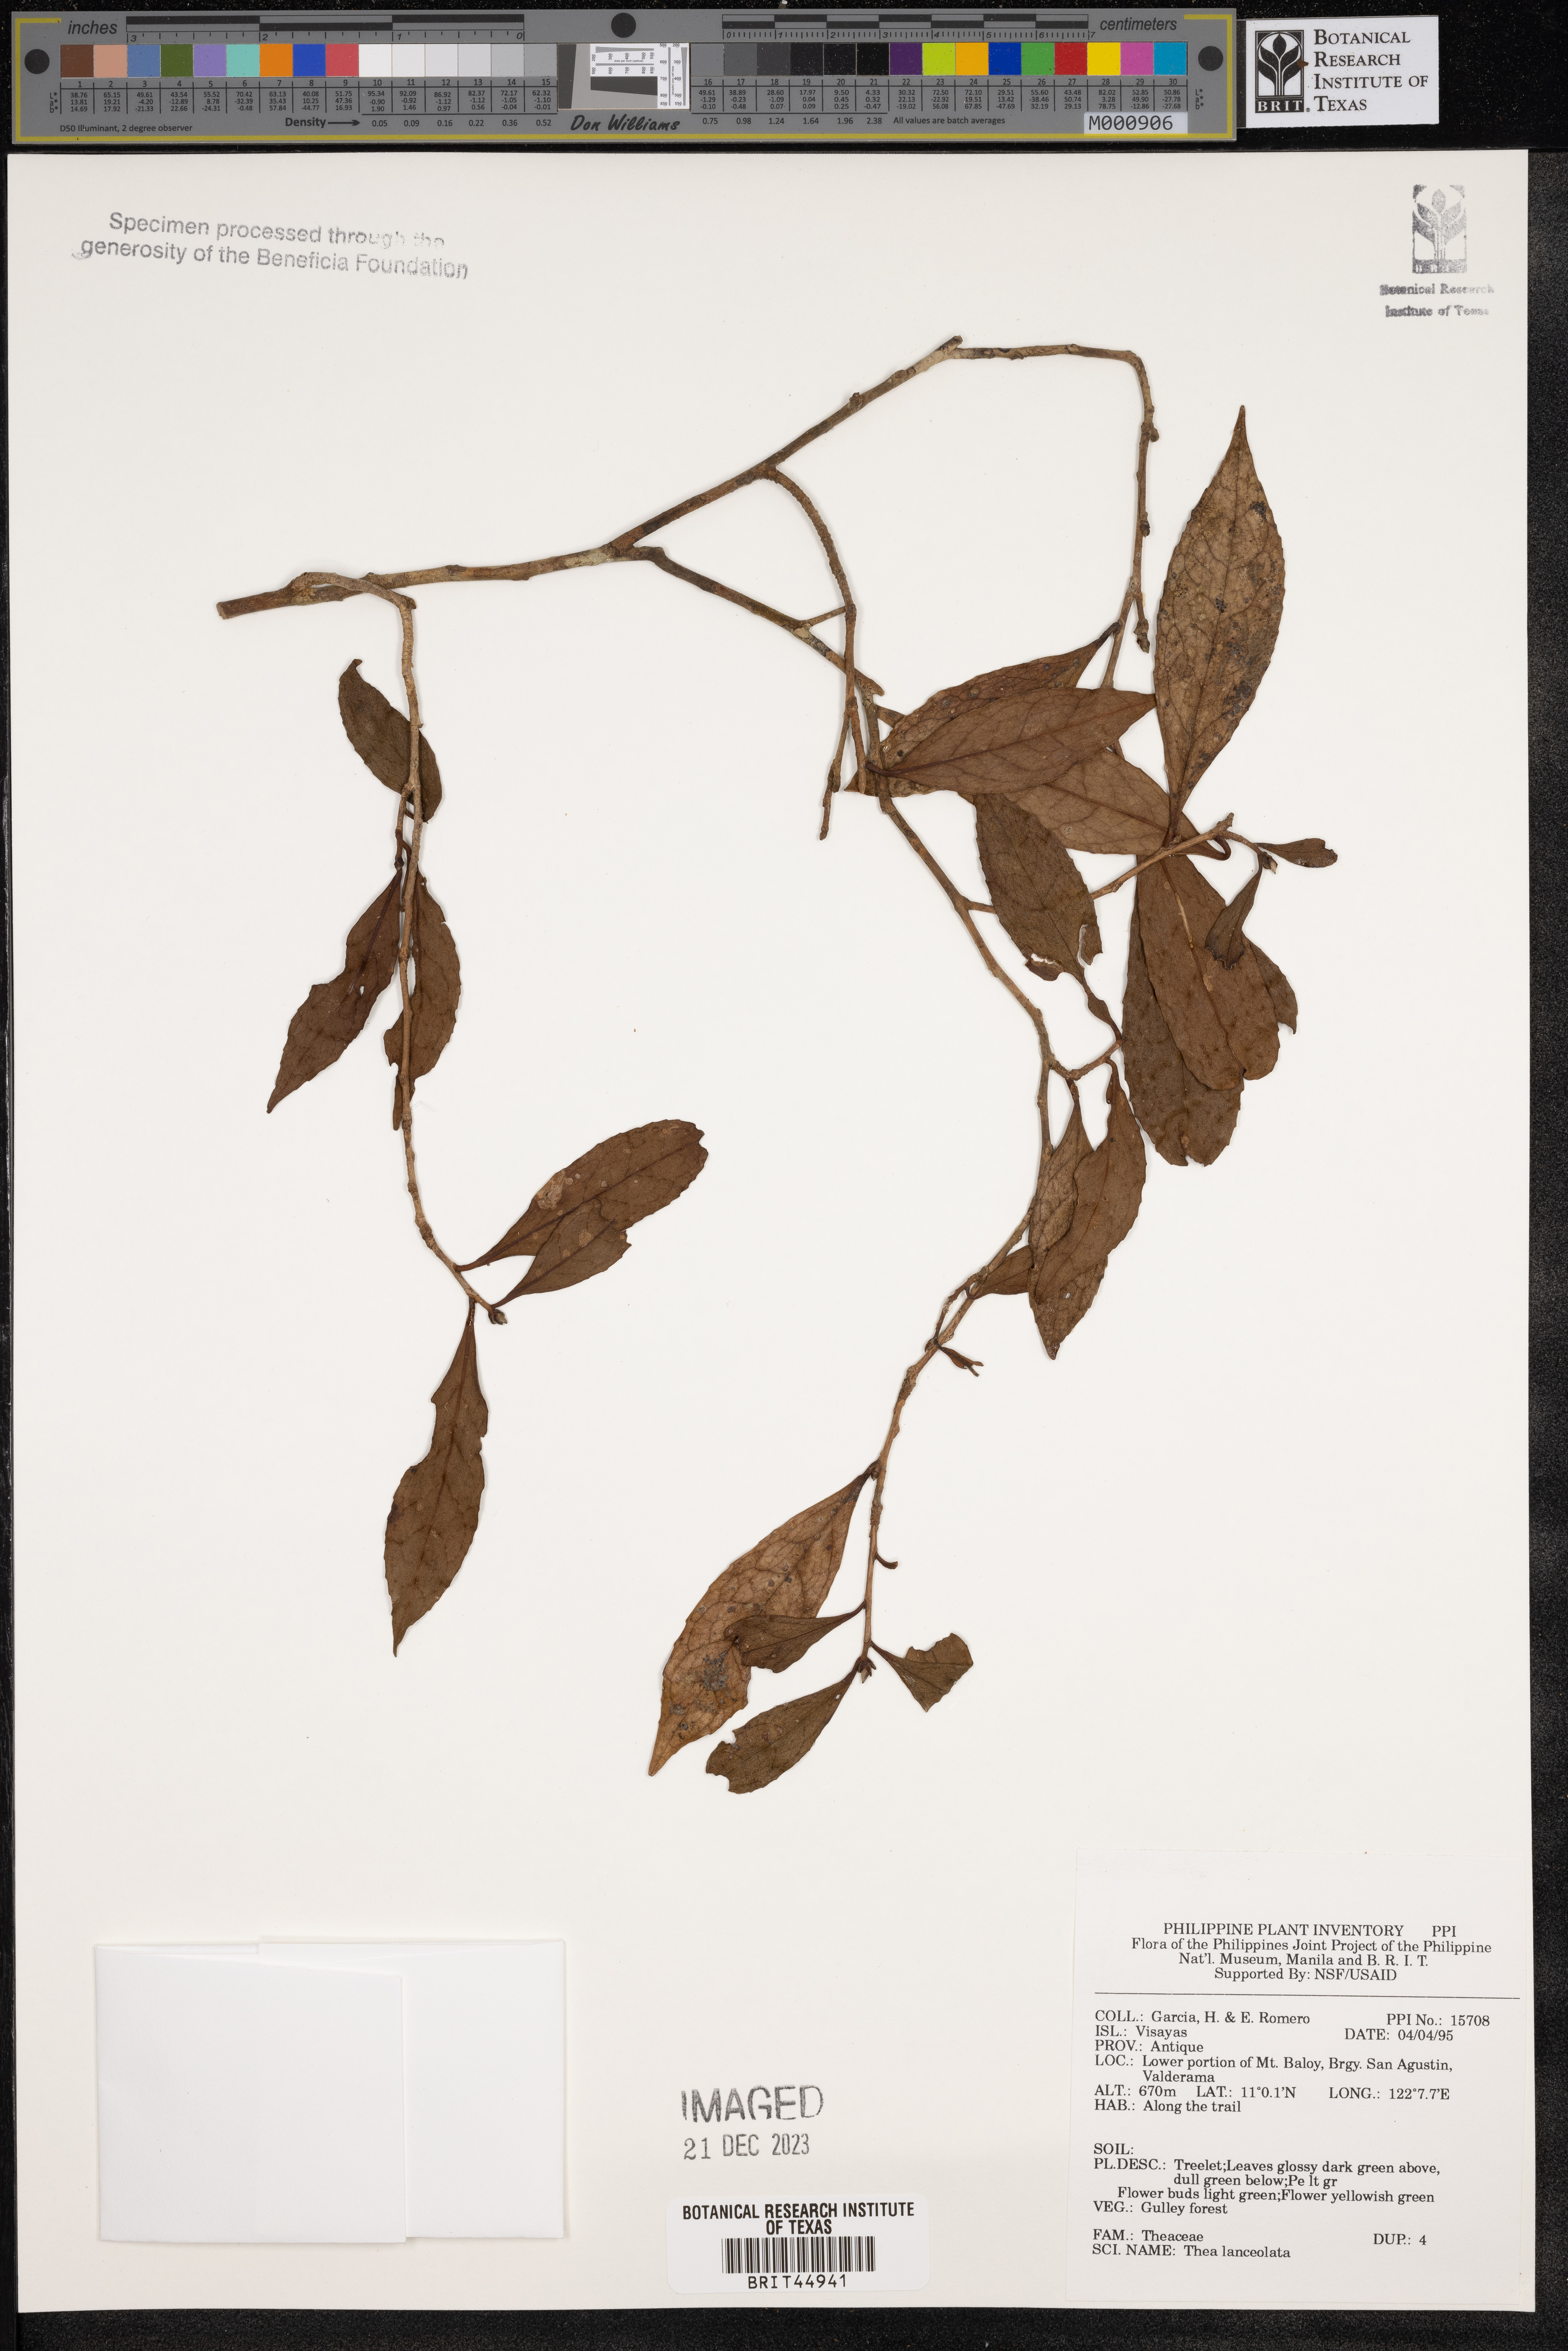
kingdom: Plantae
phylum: Tracheophyta
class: Magnoliopsida
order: Ericales
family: Theaceae
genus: Camellia
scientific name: Camellia lanceolata
